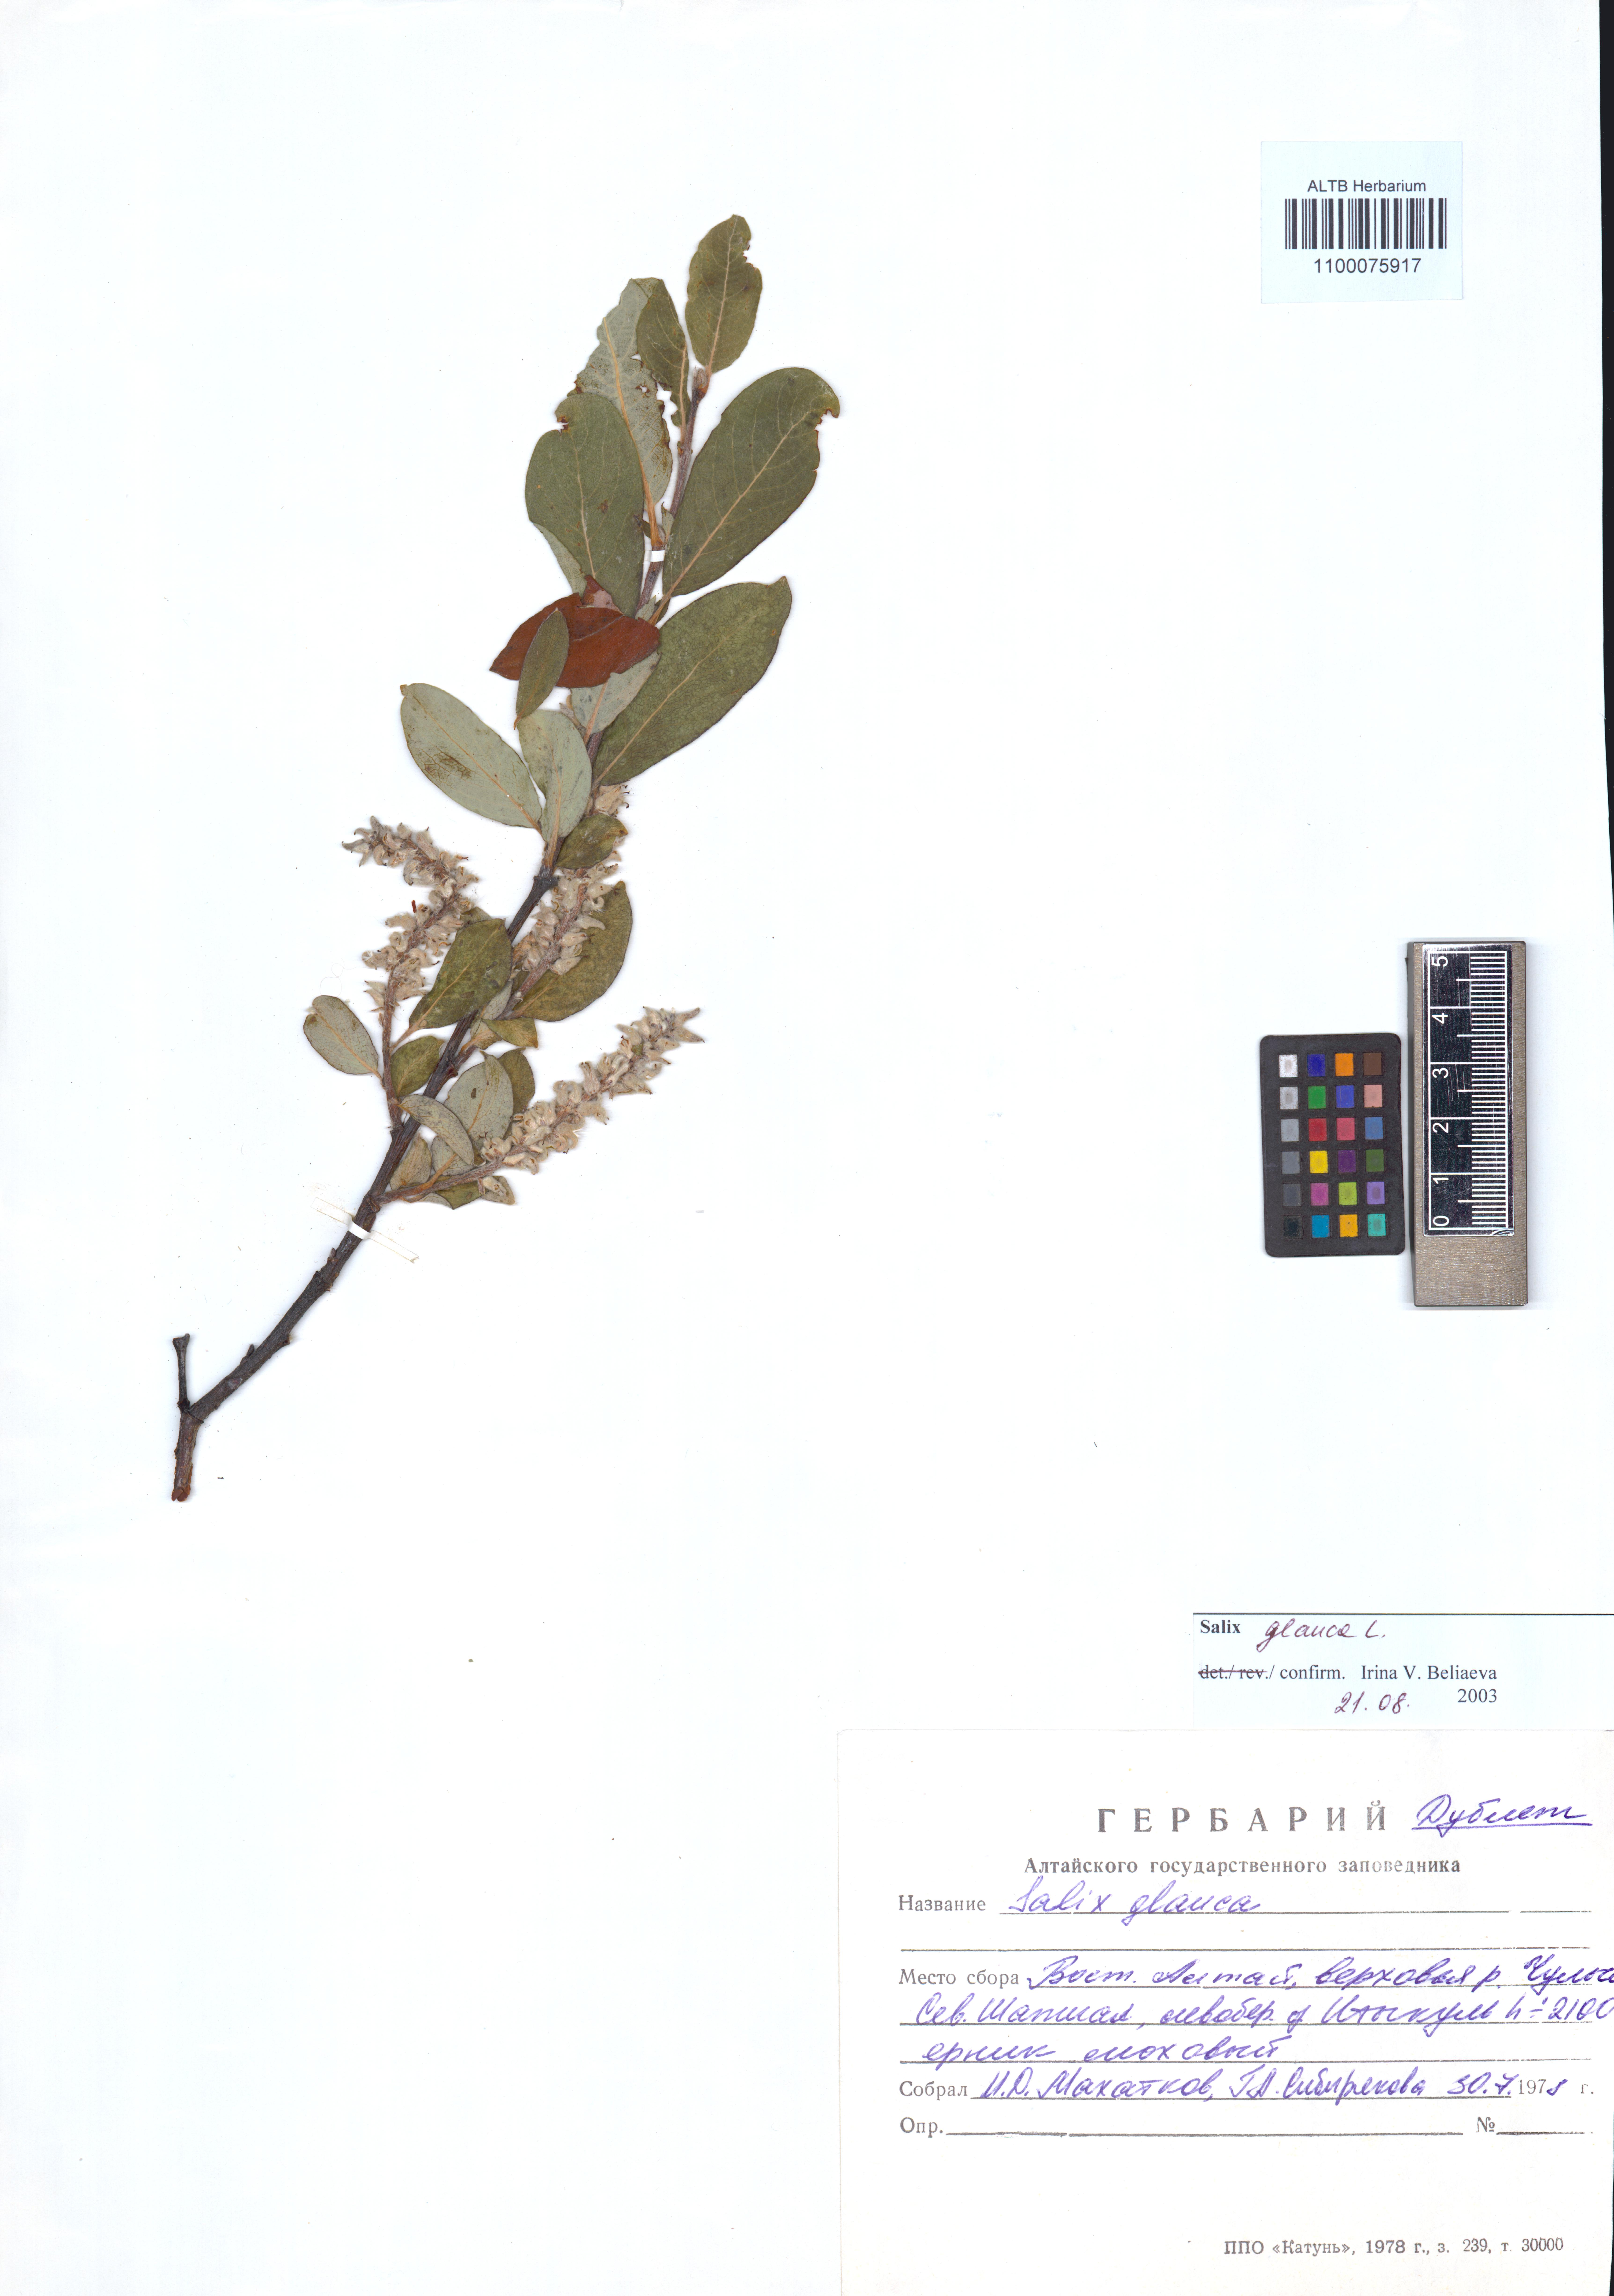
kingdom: Plantae
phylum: Tracheophyta
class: Magnoliopsida
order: Malpighiales
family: Salicaceae
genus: Salix
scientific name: Salix glauca
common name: Glaucous willow
